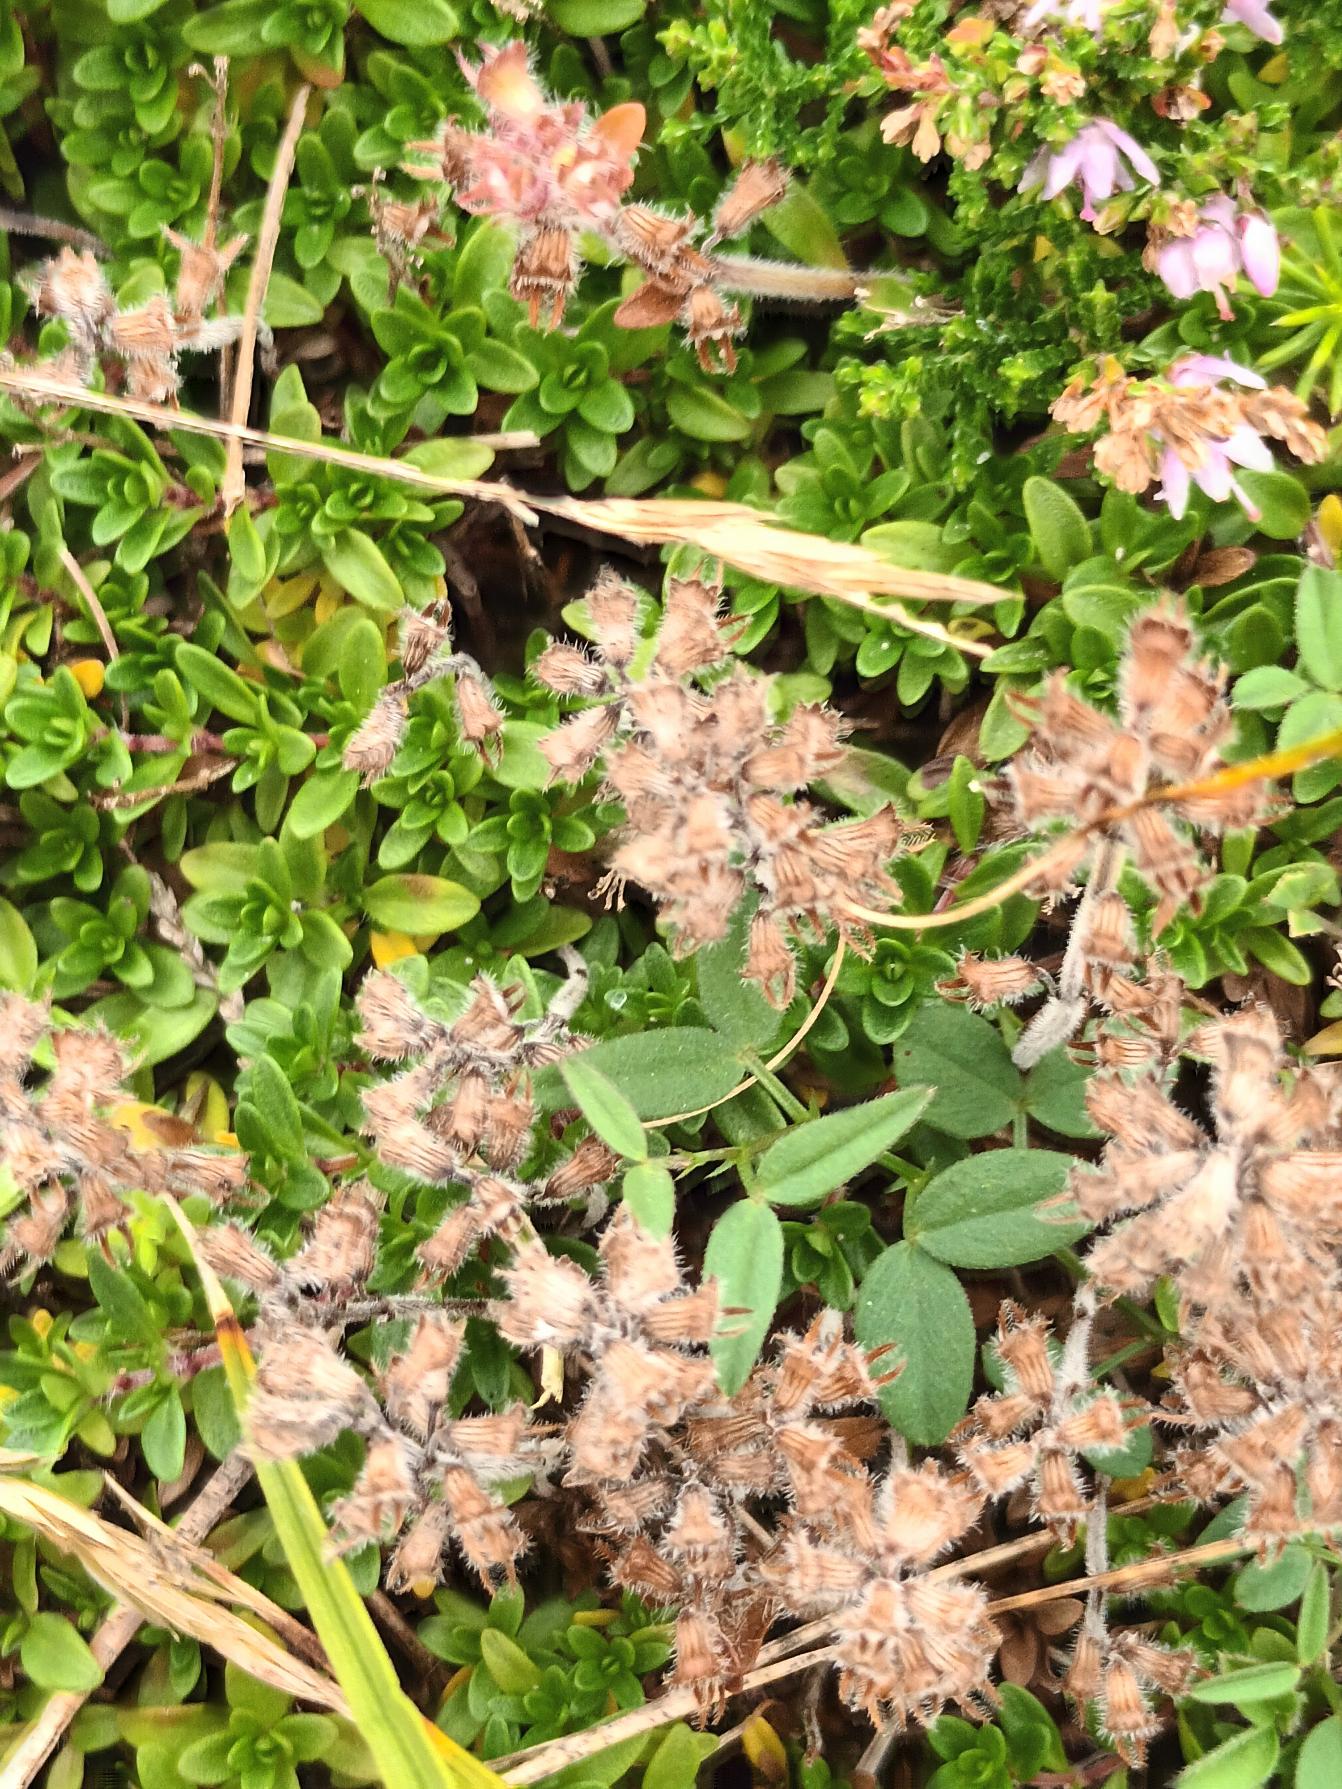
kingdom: Plantae
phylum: Tracheophyta
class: Magnoliopsida
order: Lamiales
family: Lamiaceae
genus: Thymus
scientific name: Thymus serpyllum
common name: Smalbladet timian
